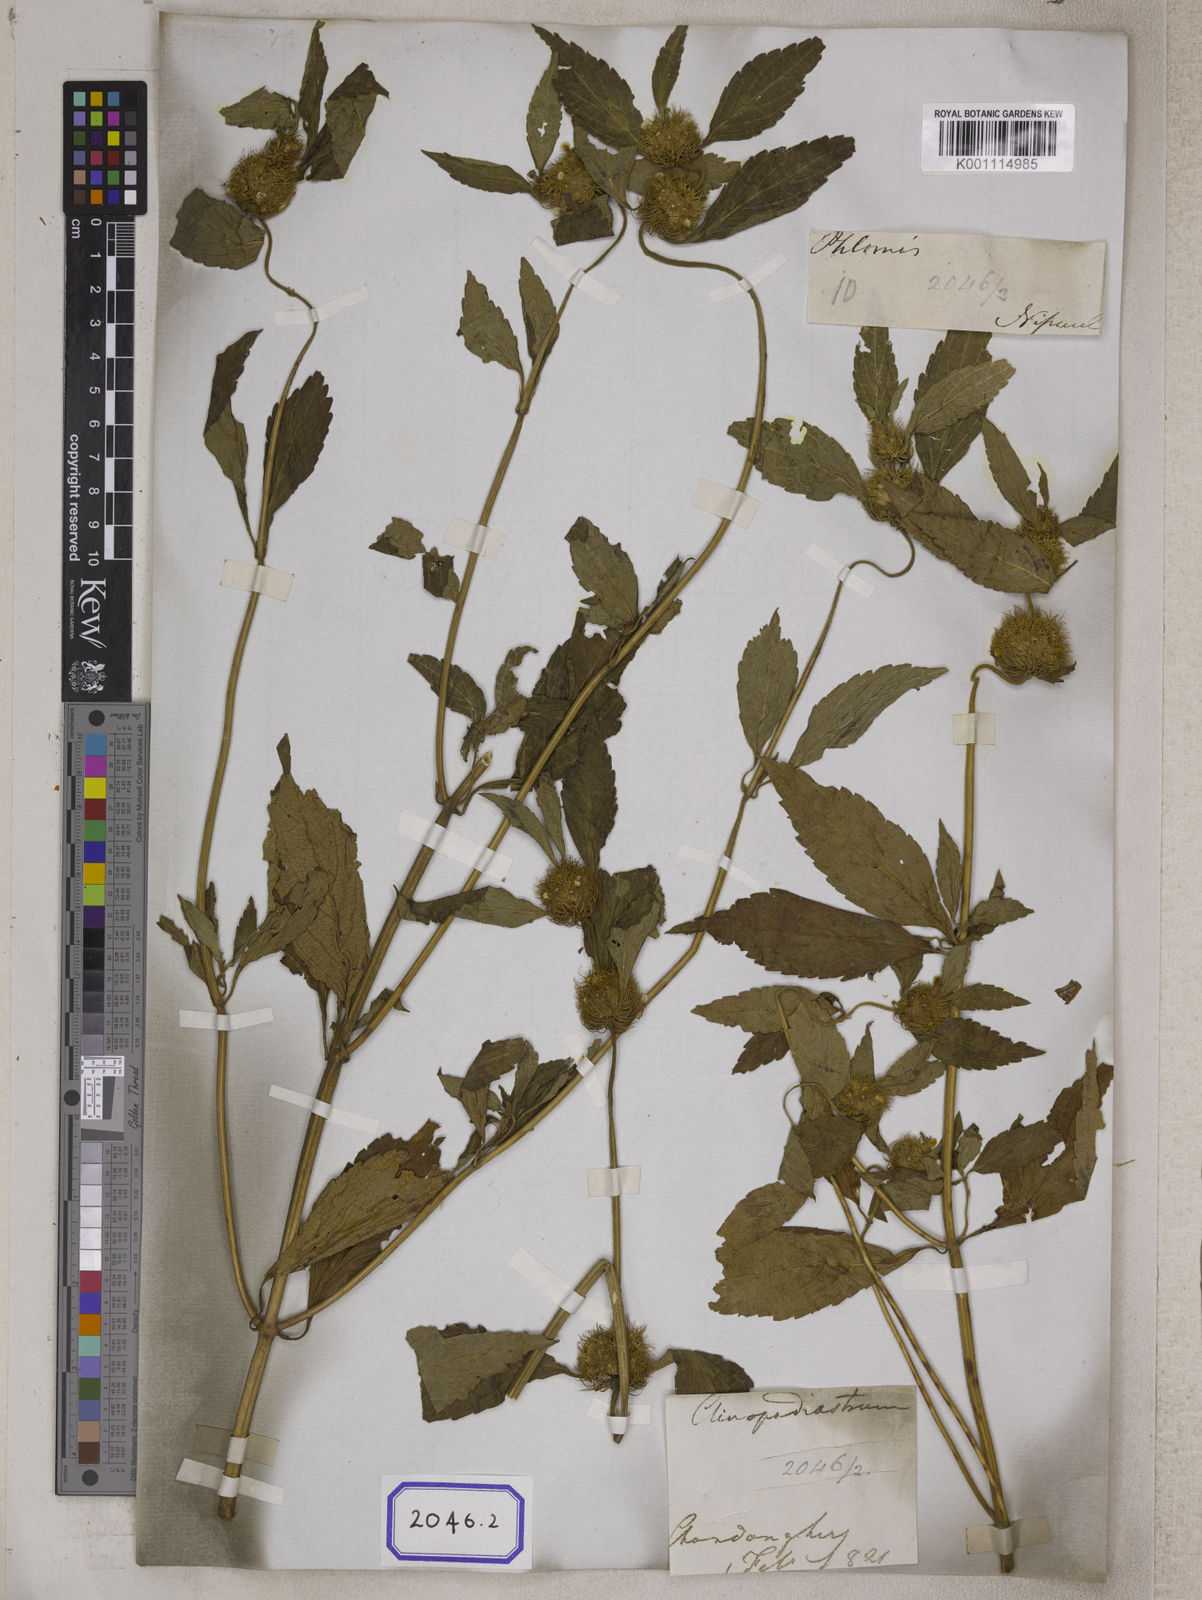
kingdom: Plantae
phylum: Tracheophyta
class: Magnoliopsida
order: Lamiales
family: Lamiaceae
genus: Leucas
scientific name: Leucas ciliata
